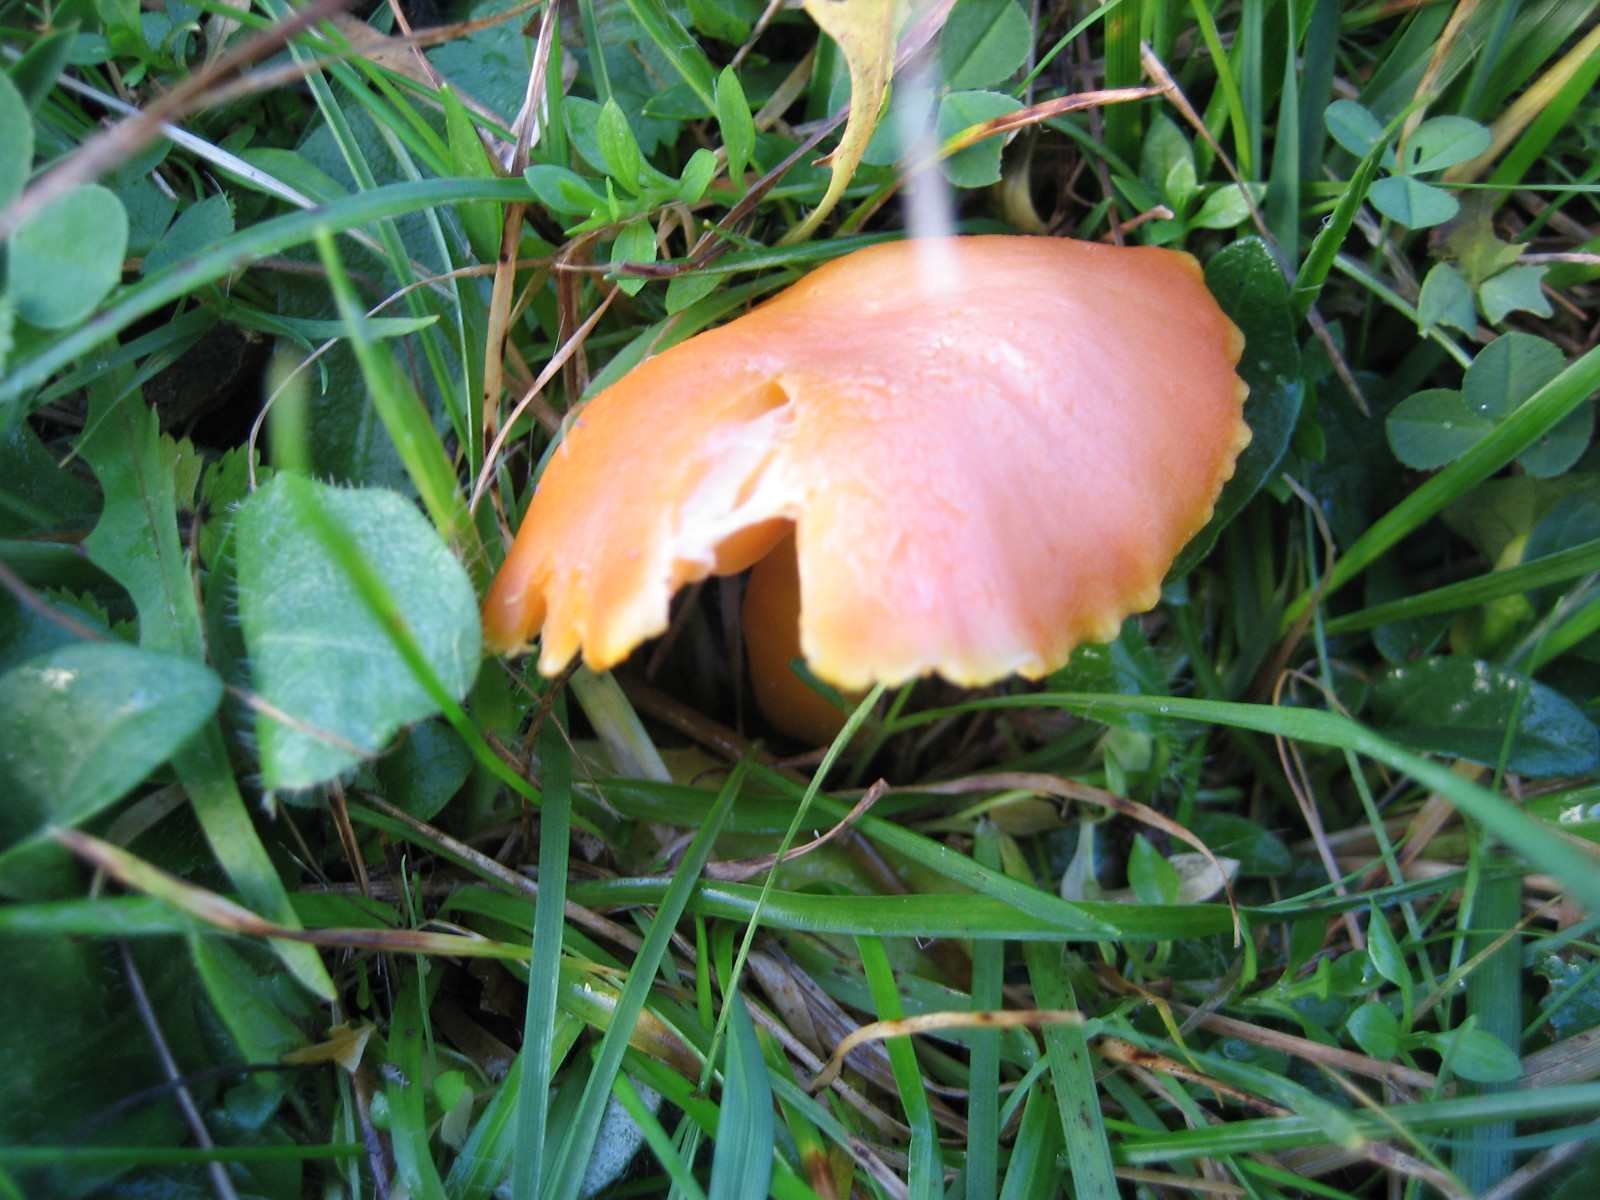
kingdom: Fungi
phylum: Basidiomycota
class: Agaricomycetes
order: Agaricales
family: Hygrophoraceae
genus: Hygrocybe
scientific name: Hygrocybe reidii
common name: honning-vokshat
